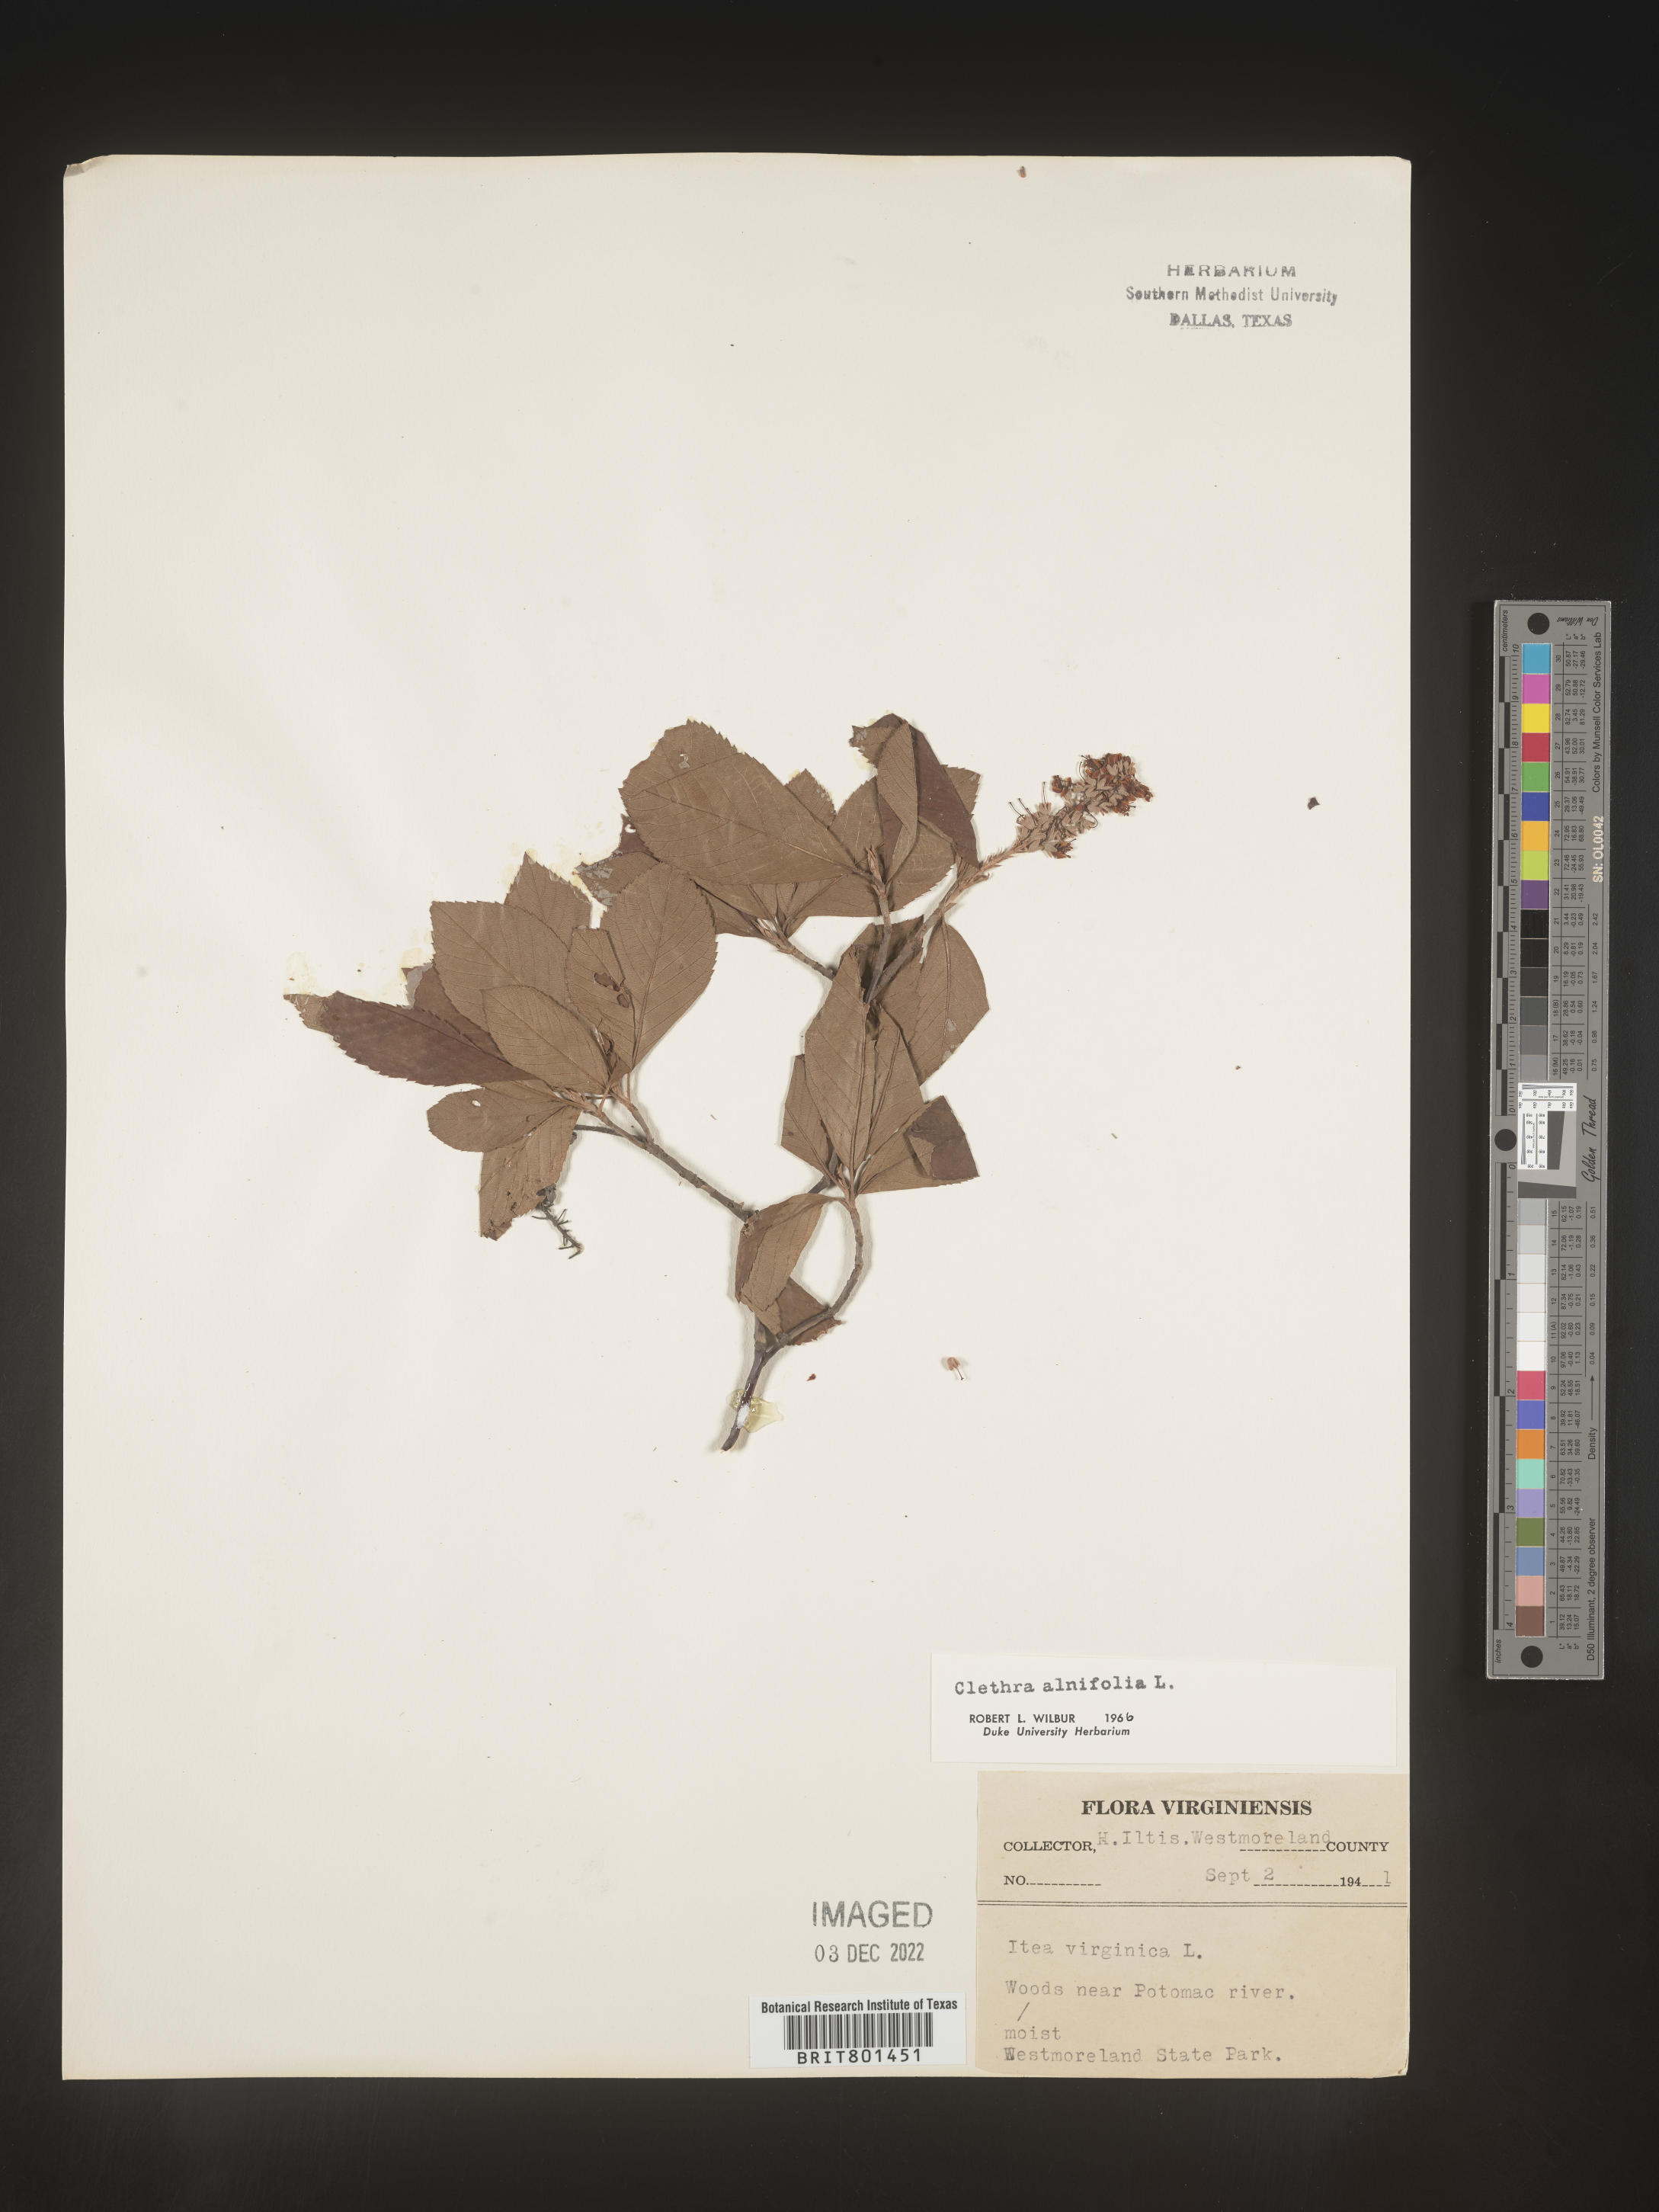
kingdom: Plantae
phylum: Tracheophyta
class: Magnoliopsida
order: Ericales
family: Clethraceae
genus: Clethra
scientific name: Clethra alnifolia
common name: Sweet pepperbush
